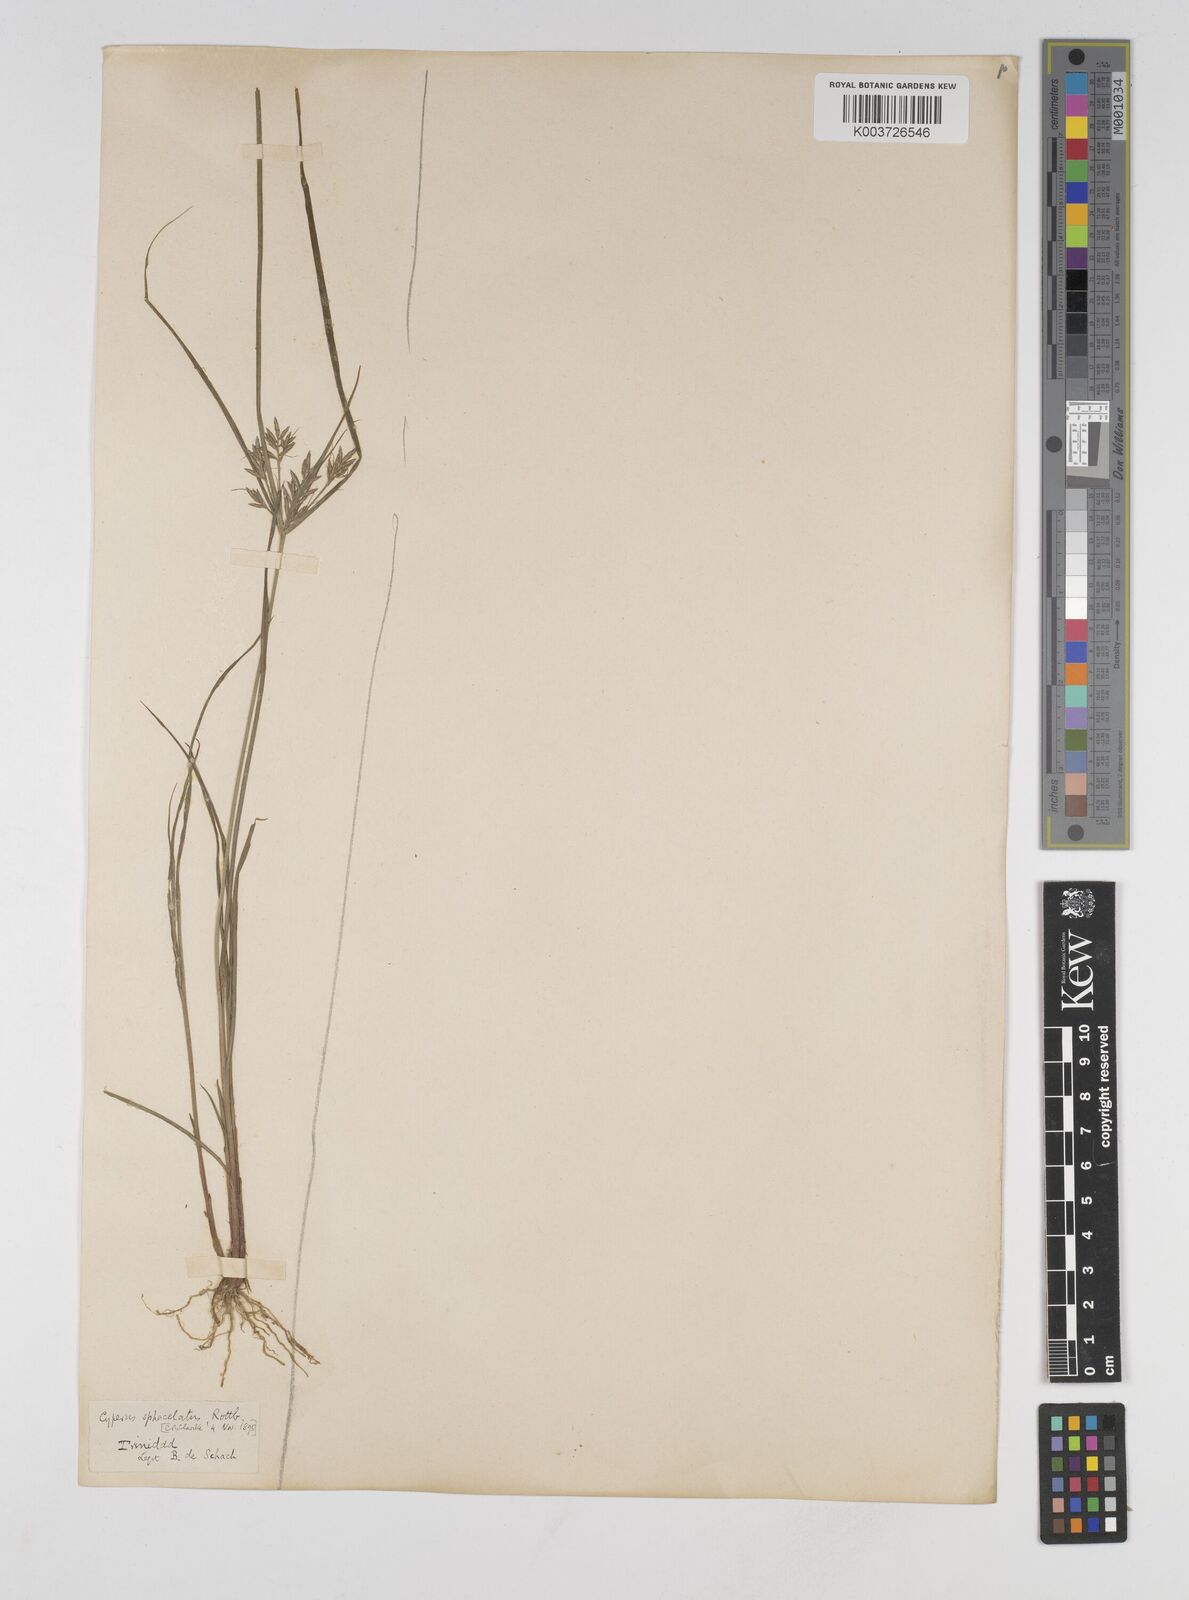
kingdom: Plantae
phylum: Tracheophyta
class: Liliopsida
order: Poales
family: Cyperaceae
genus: Cyperus
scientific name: Cyperus sphacelatus
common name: Roadside flatsedge
